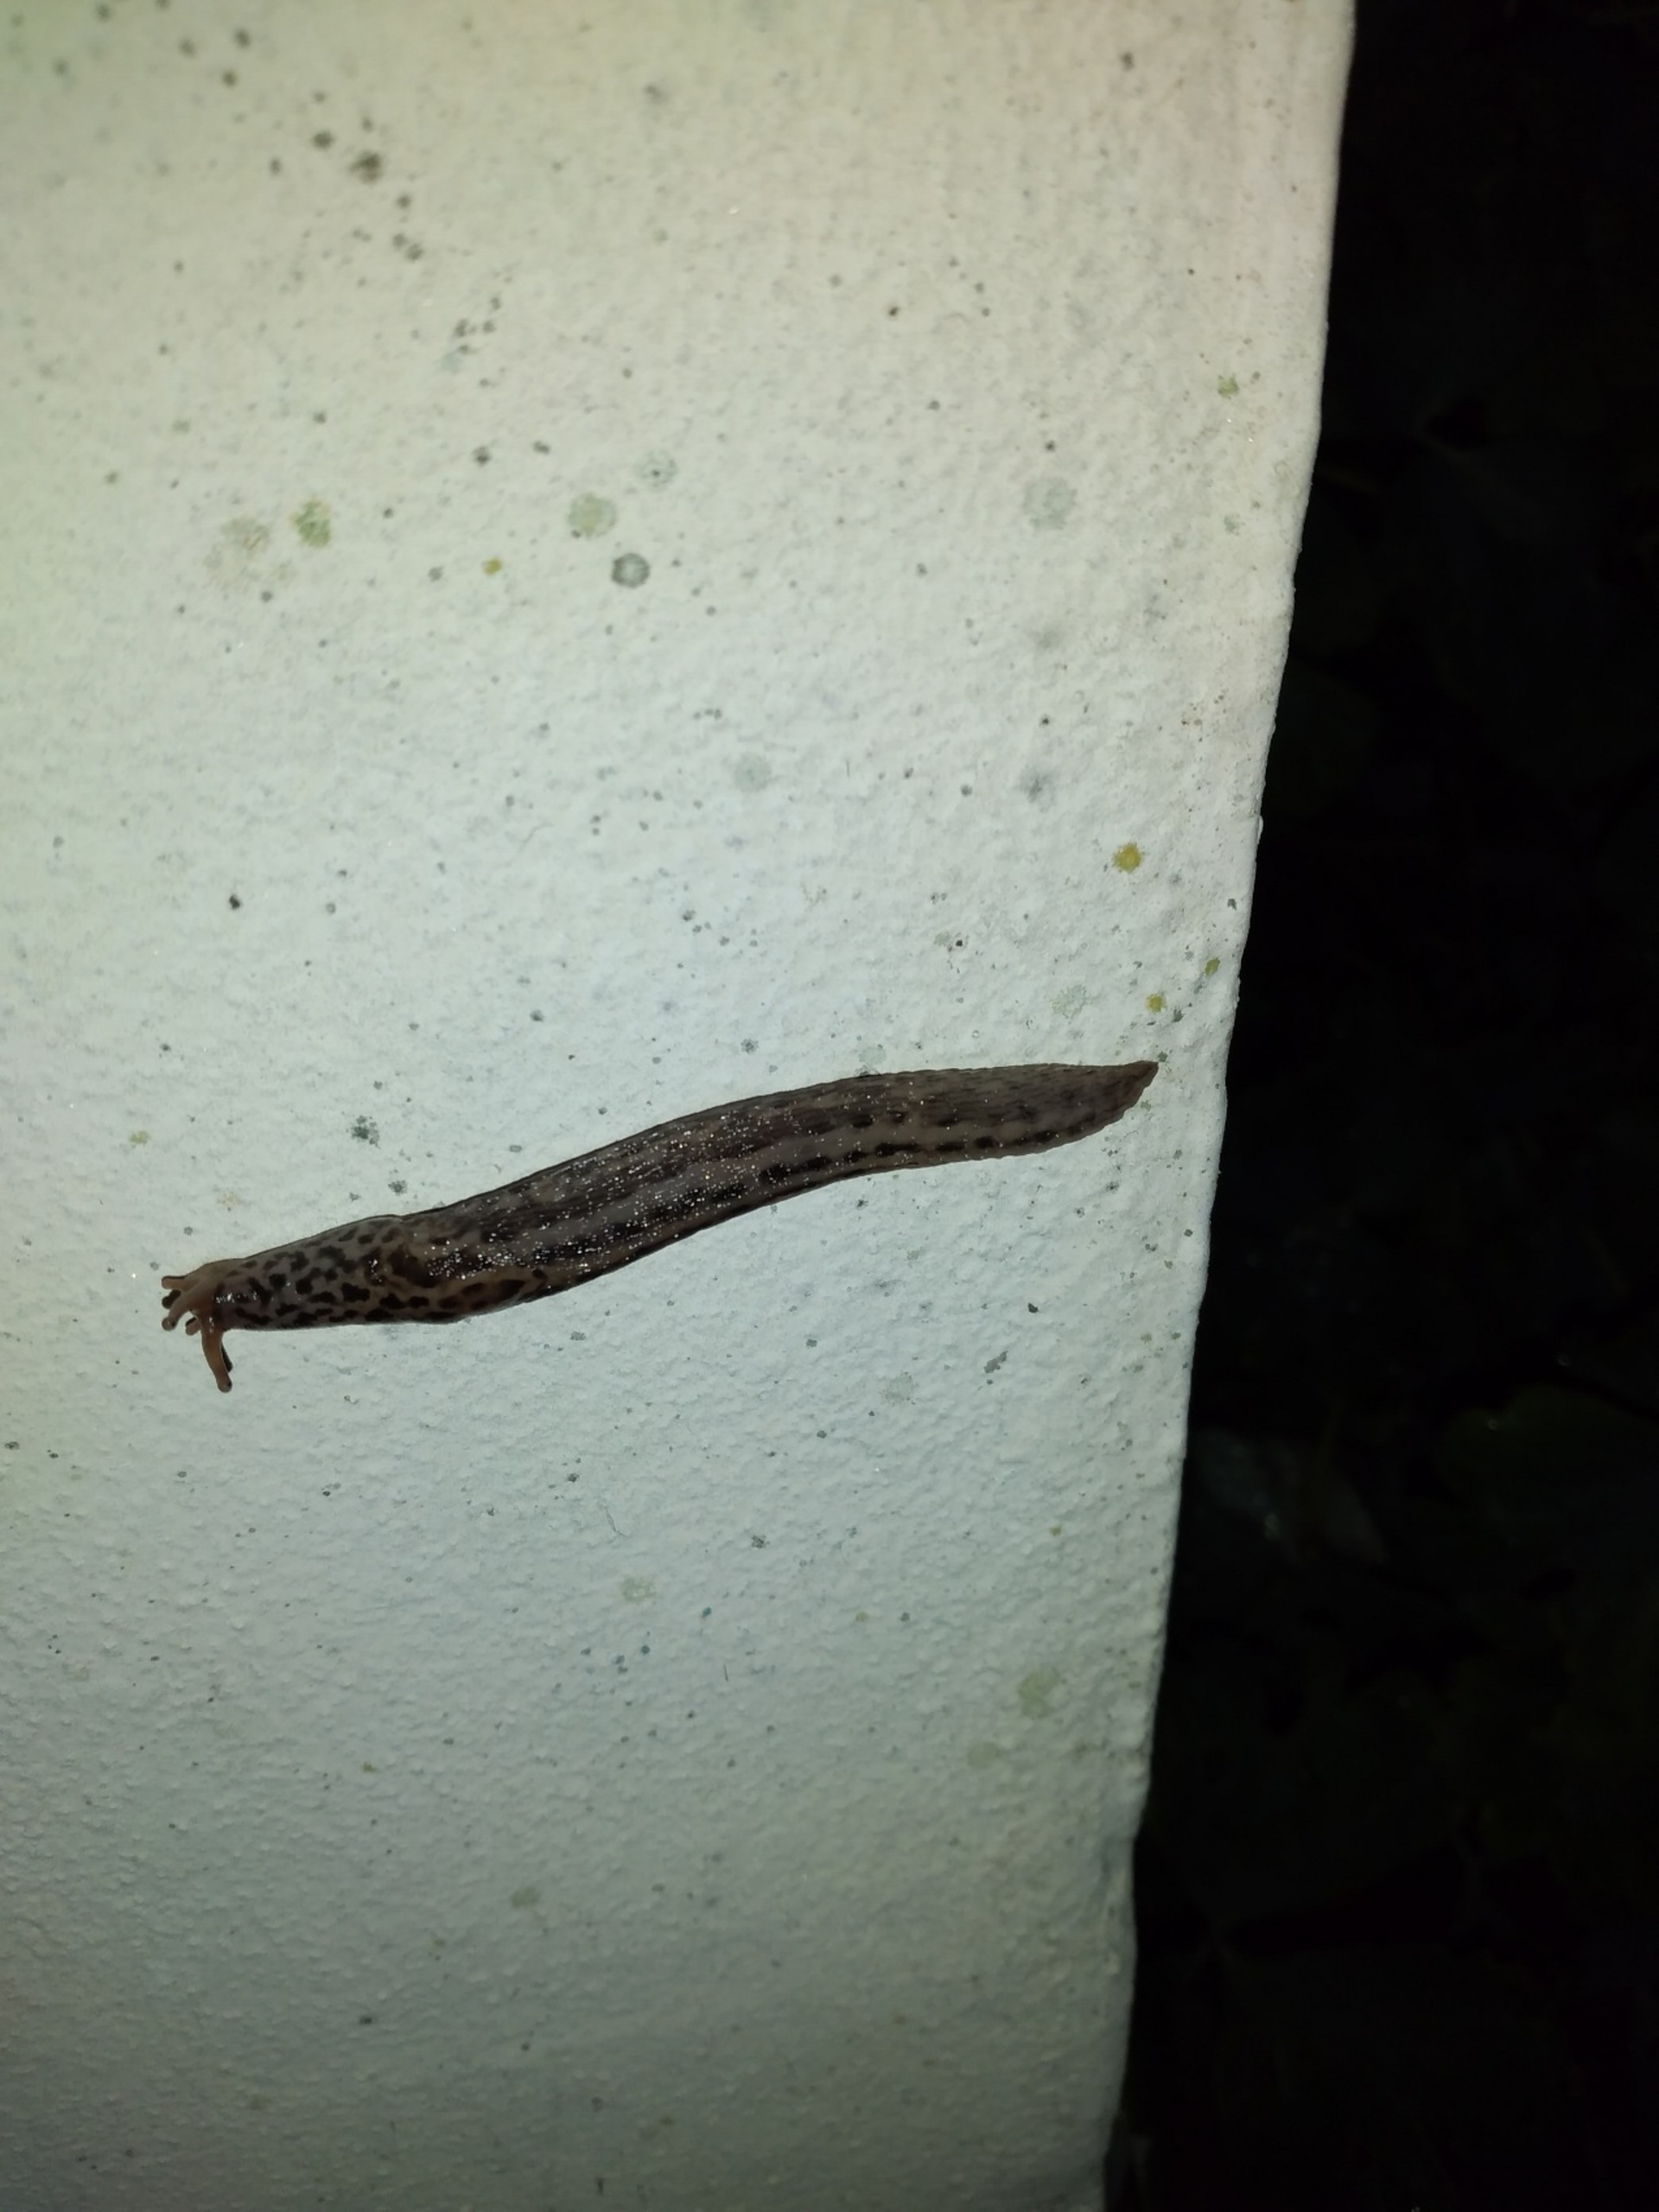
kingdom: Animalia
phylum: Mollusca
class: Gastropoda
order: Stylommatophora
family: Limacidae
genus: Limax
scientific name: Limax maximus
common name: Pantersnegl
